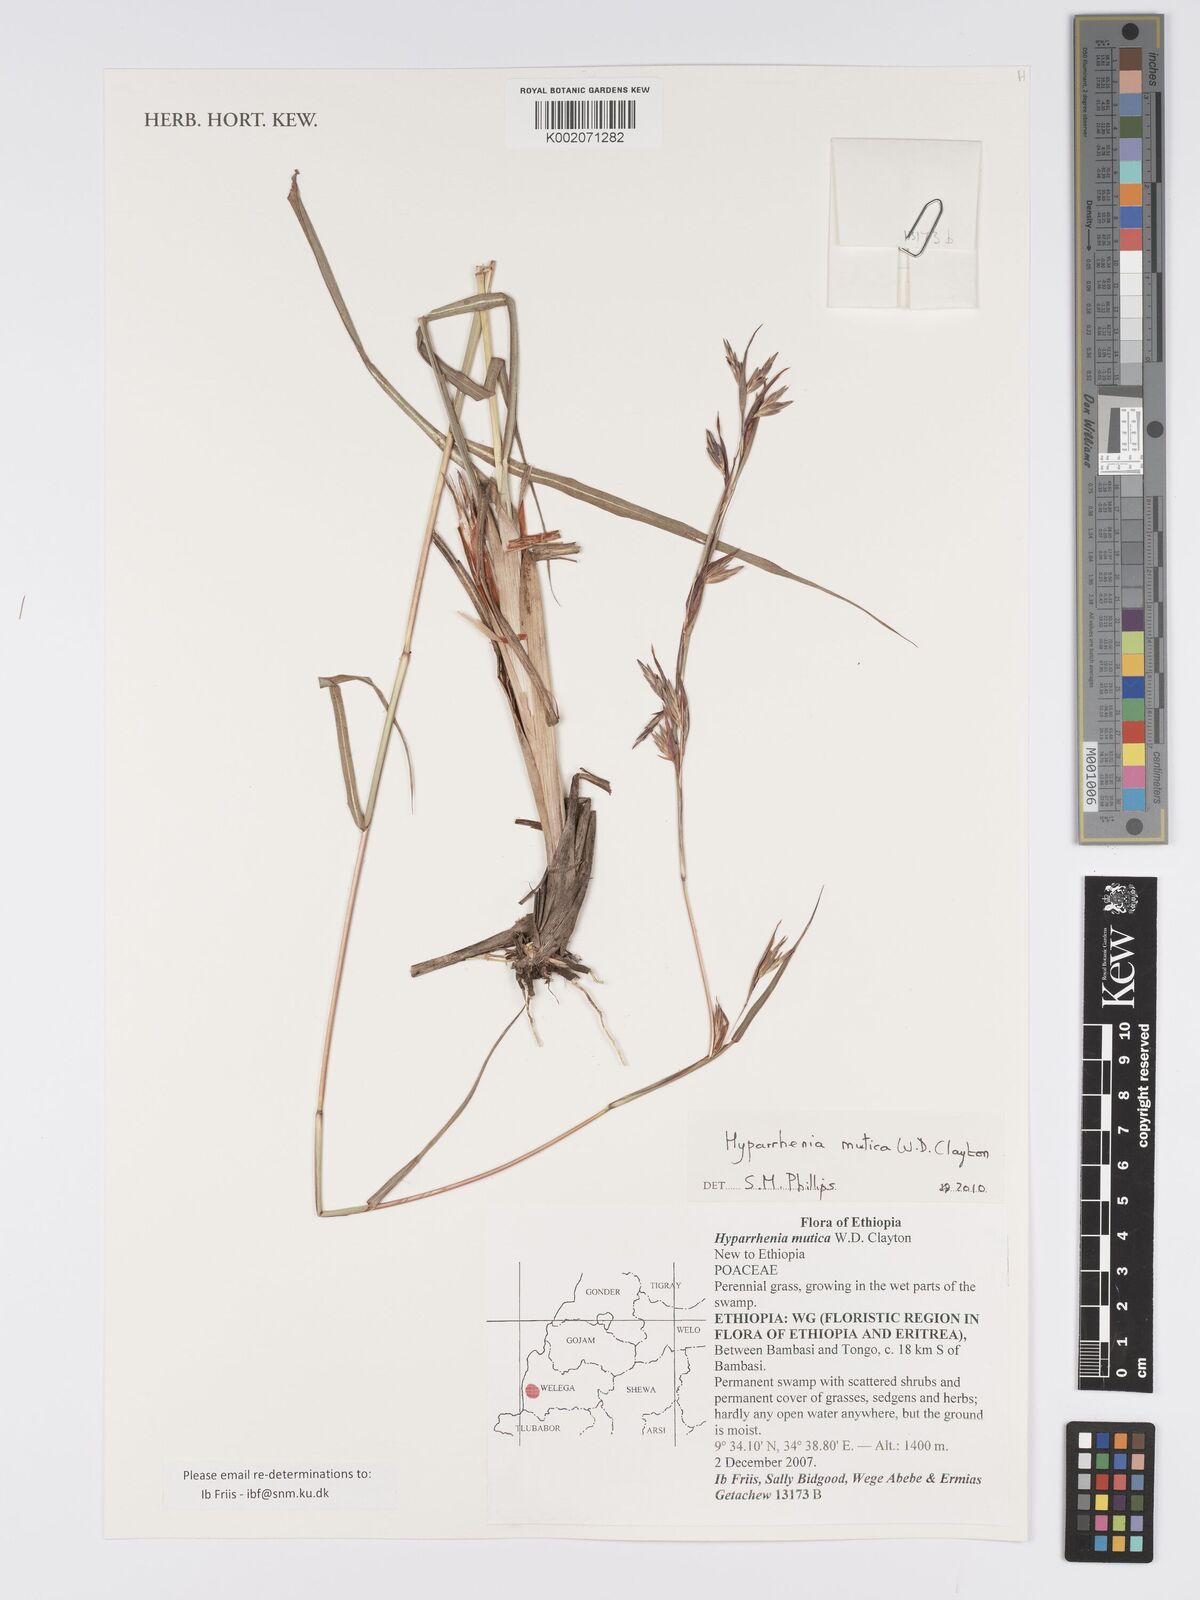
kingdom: Plantae
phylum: Tracheophyta
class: Liliopsida
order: Poales
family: Poaceae
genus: Hyparrhenia
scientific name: Hyparrhenia diplandra
